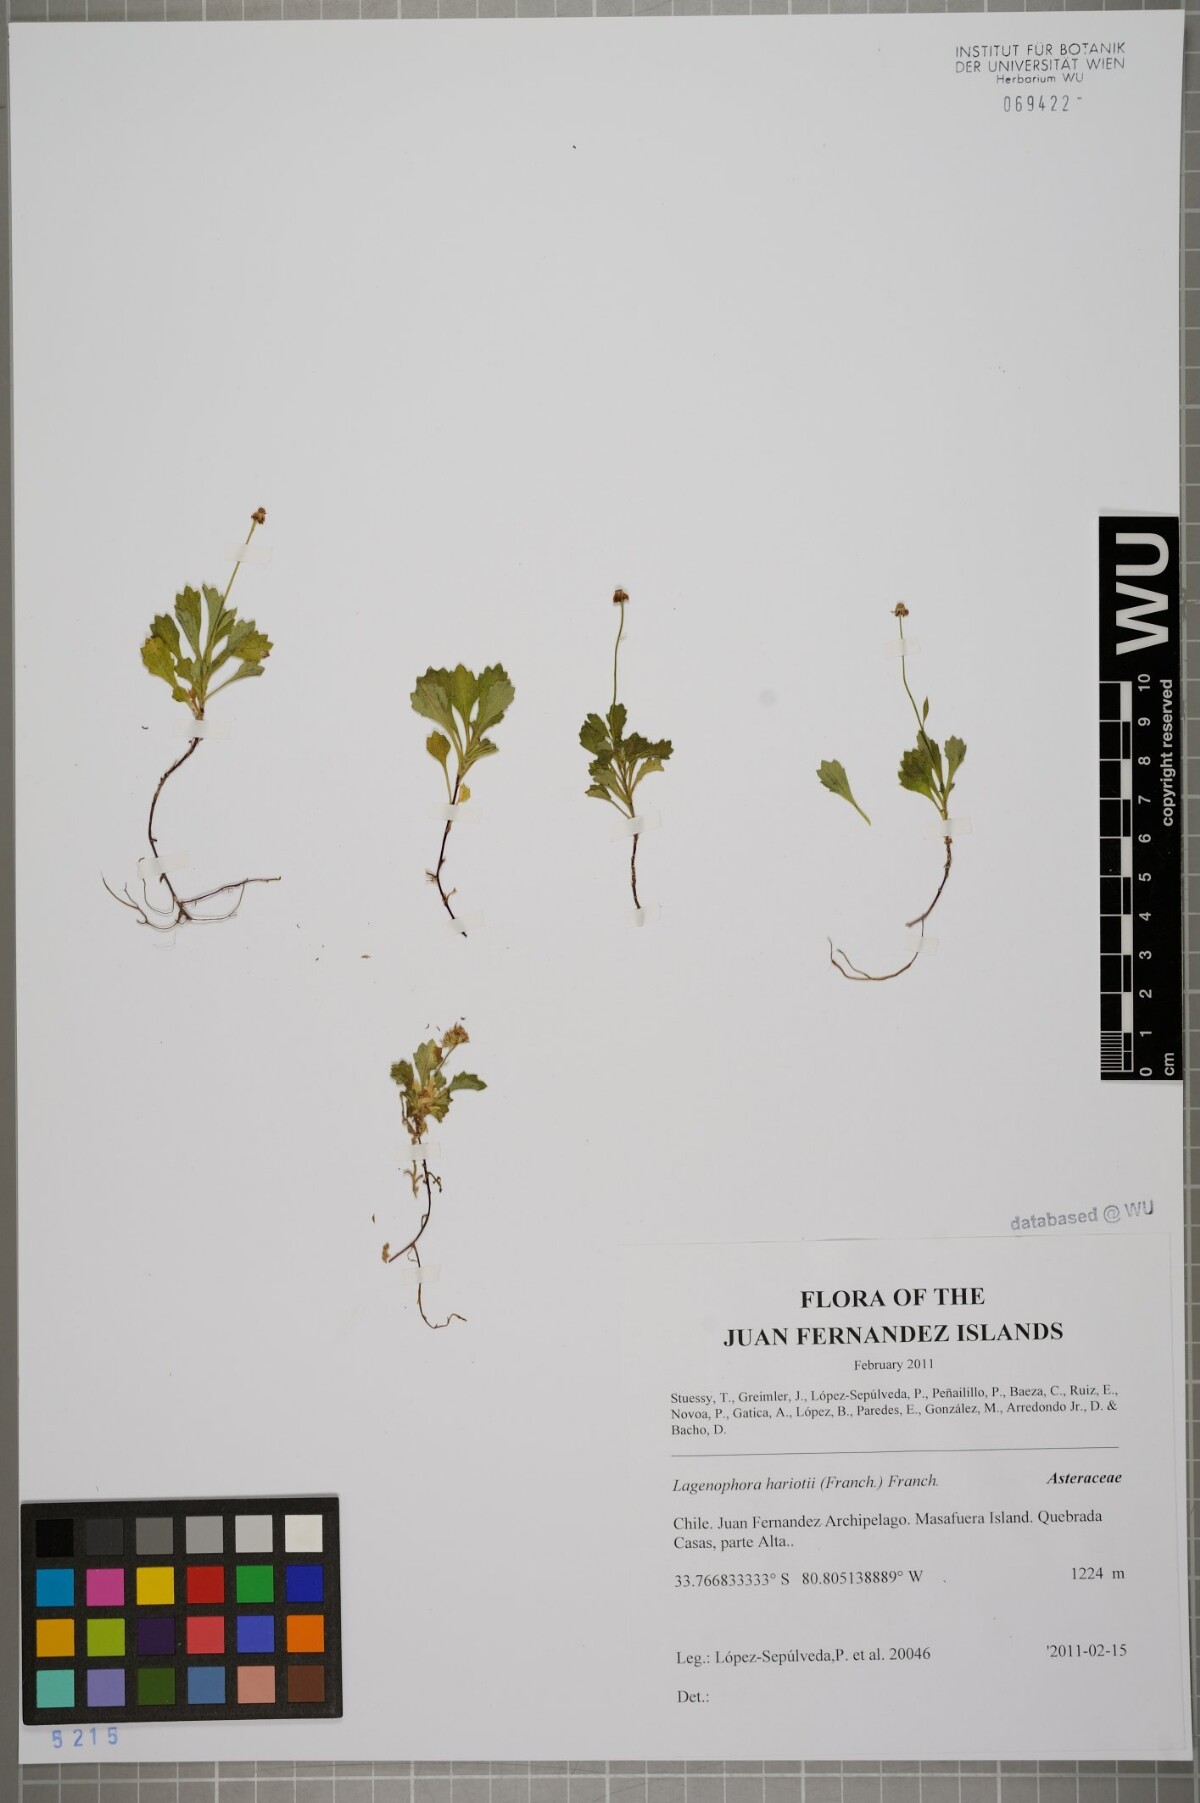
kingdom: Plantae
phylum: Tracheophyta
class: Magnoliopsida
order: Asterales
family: Asteraceae
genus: Lagenophora
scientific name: Lagenophora hariotii
